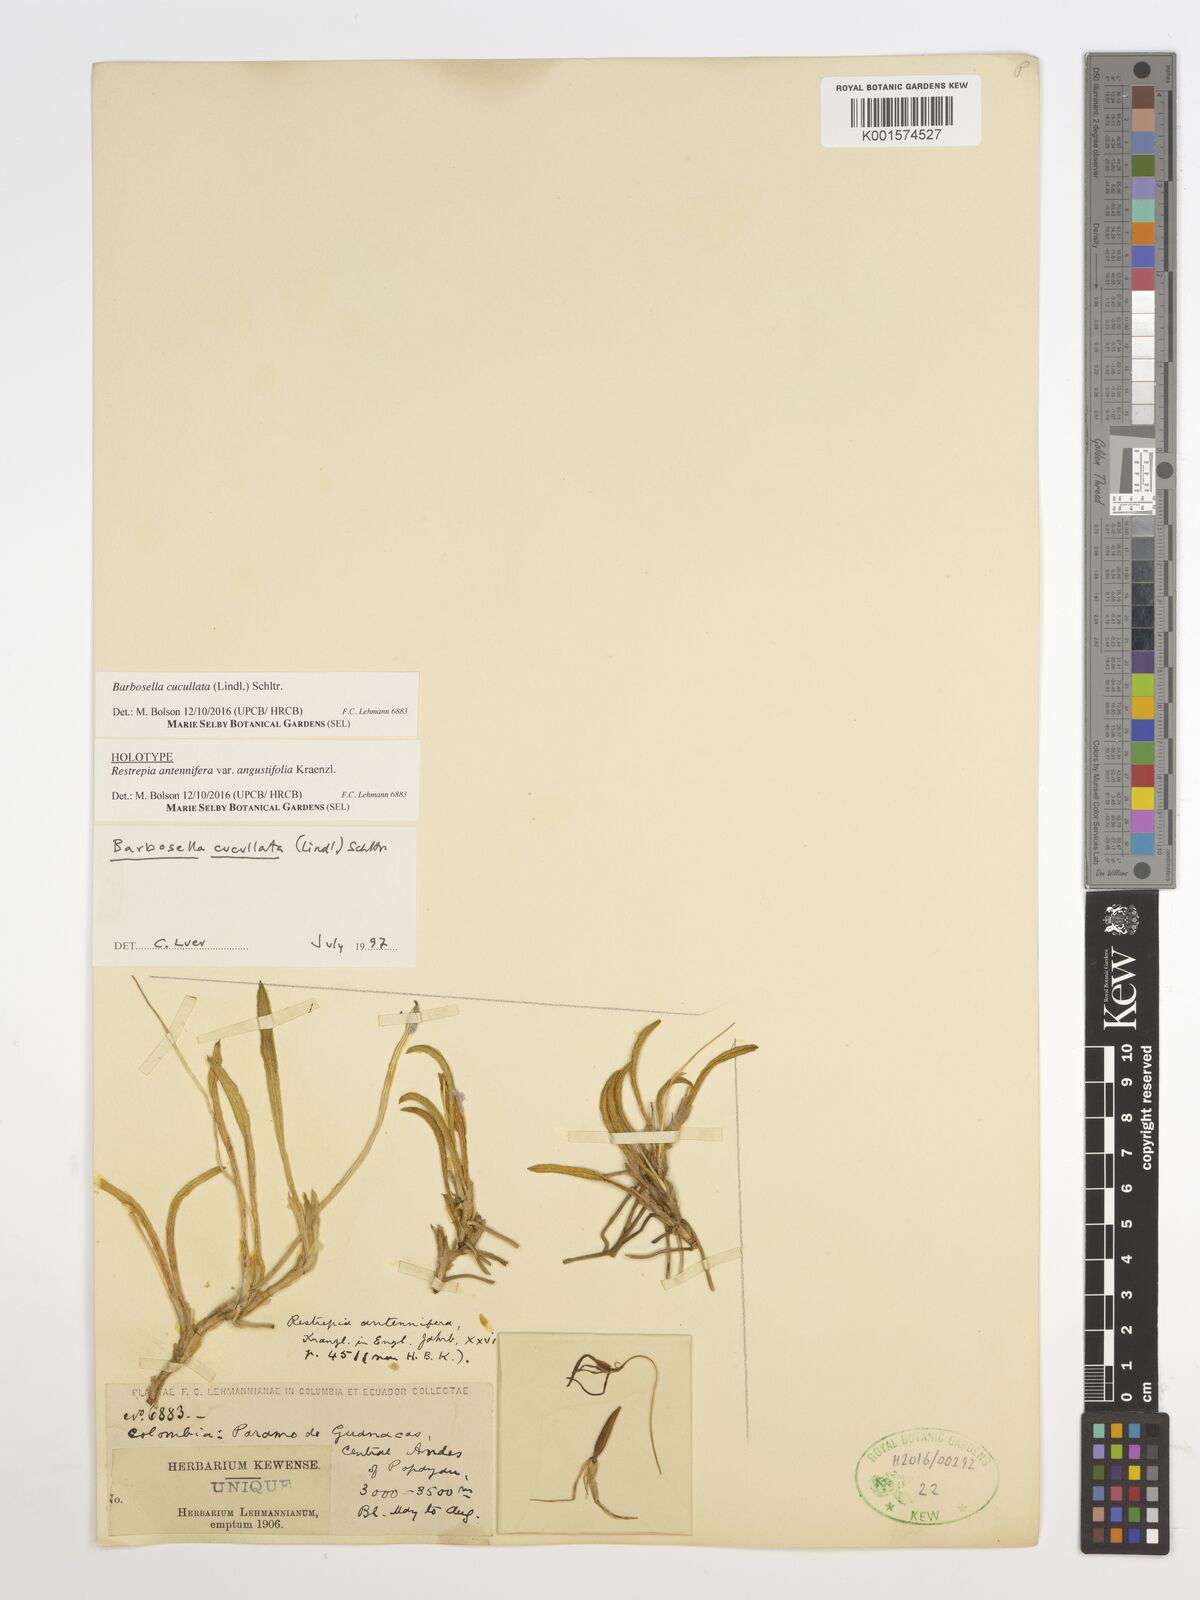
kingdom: Plantae
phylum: Tracheophyta
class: Liliopsida
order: Asparagales
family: Orchidaceae
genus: Barbosella
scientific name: Barbosella cucullata
